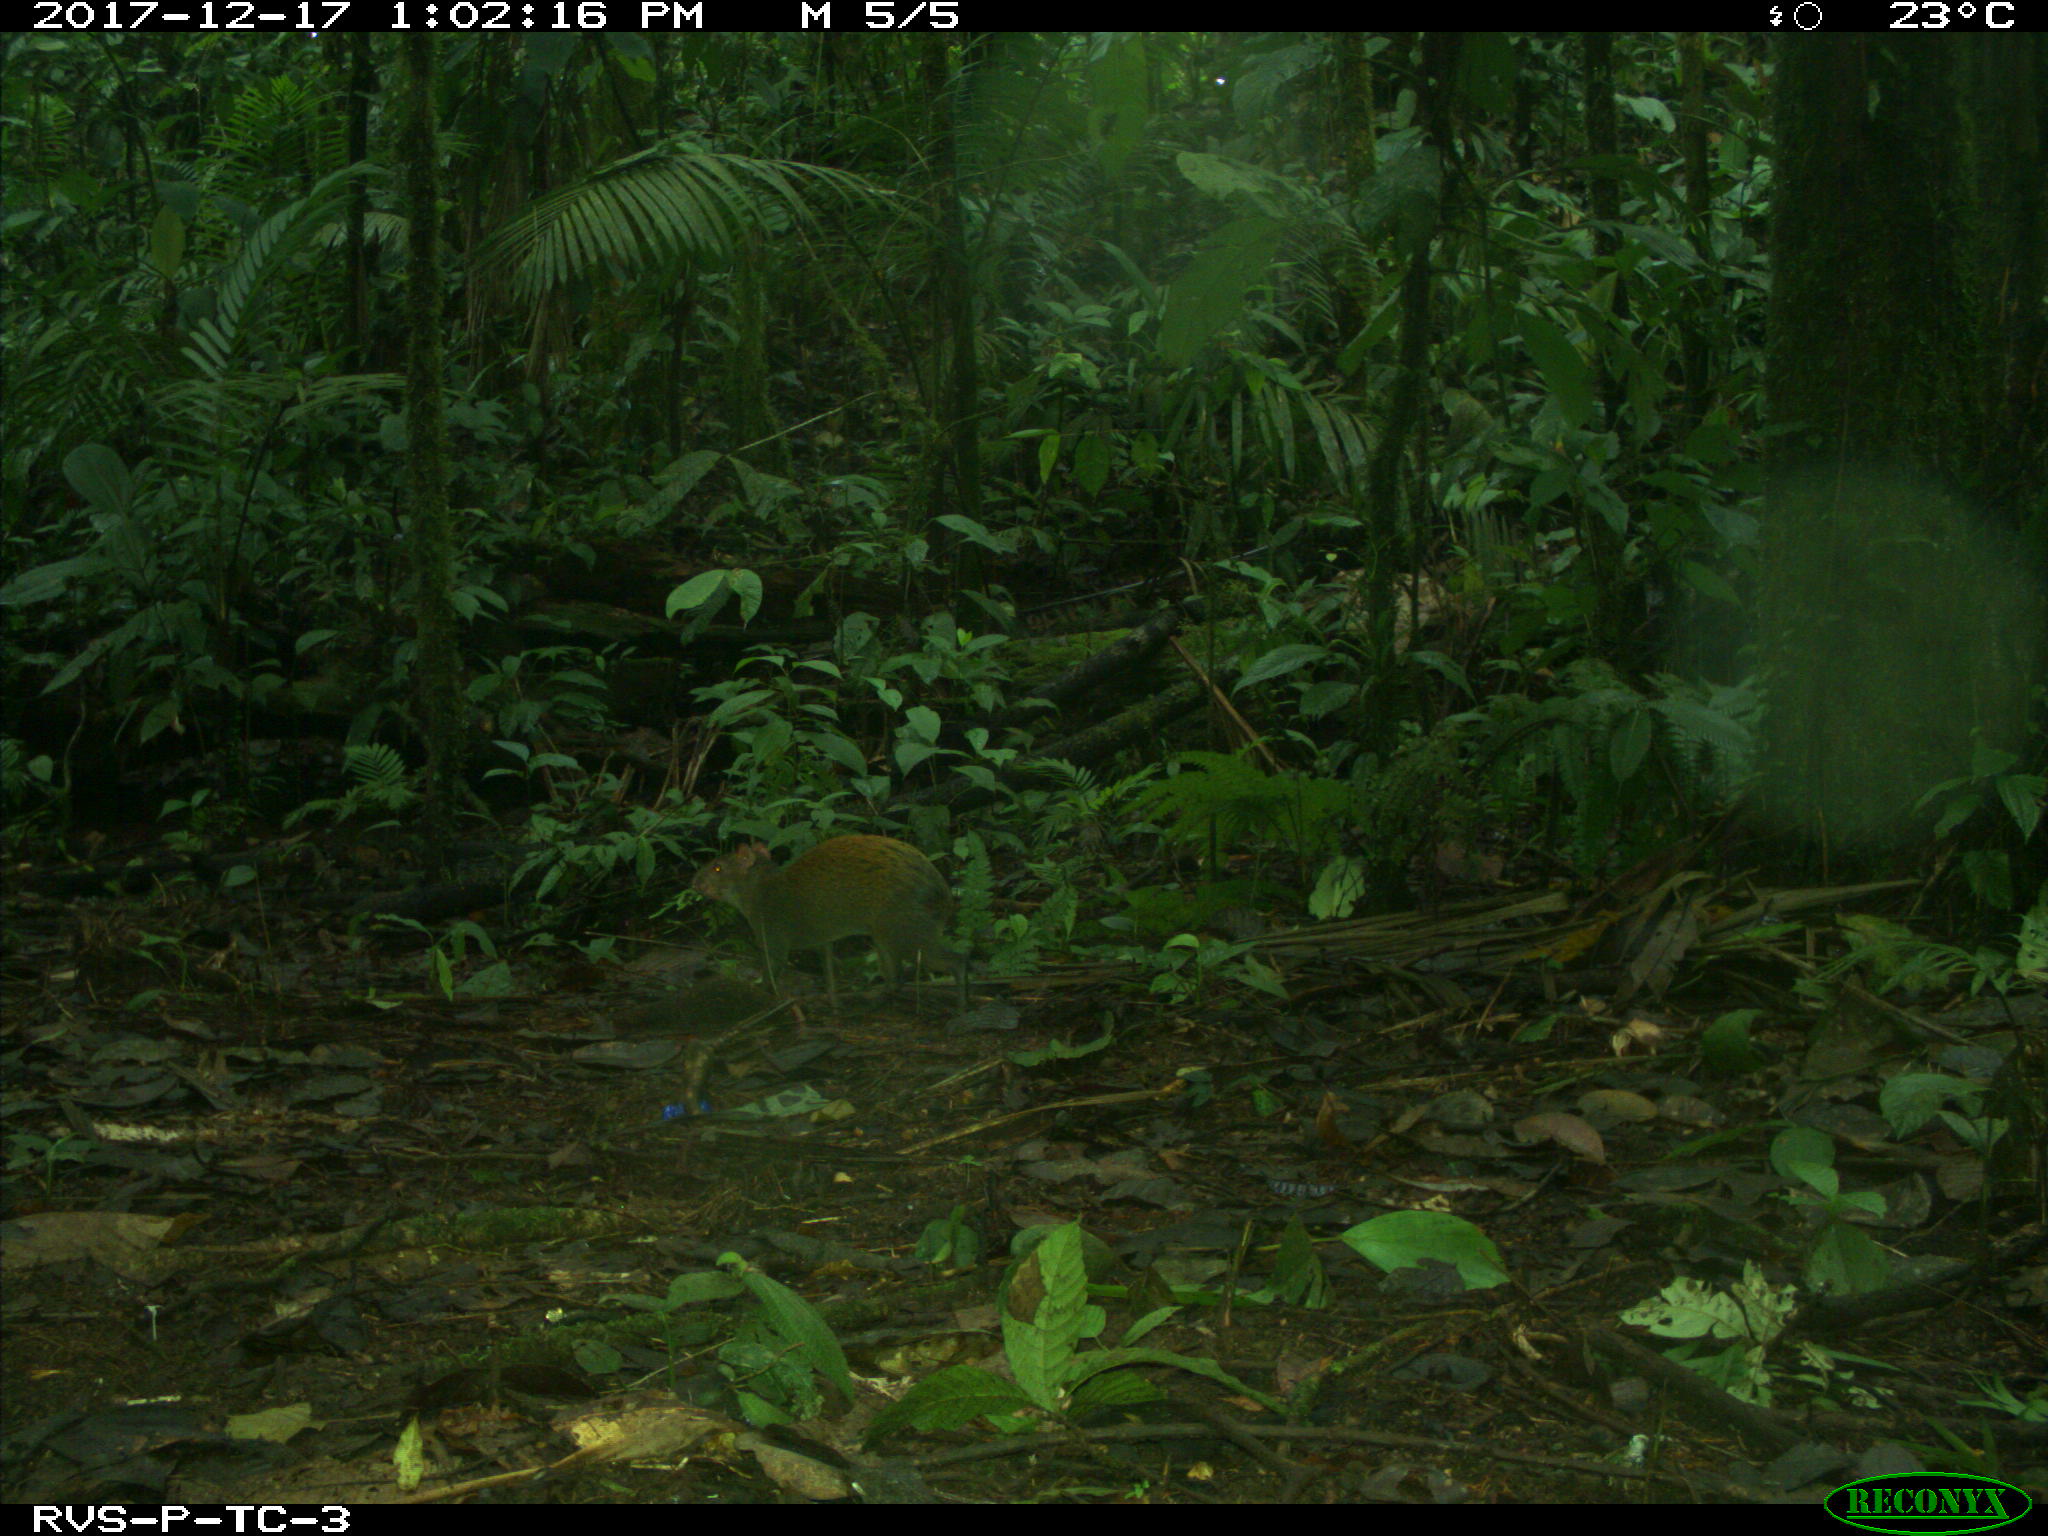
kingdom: Animalia
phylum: Chordata
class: Mammalia
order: Rodentia
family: Dasyproctidae
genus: Dasyprocta
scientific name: Dasyprocta punctata
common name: Central american agouti
